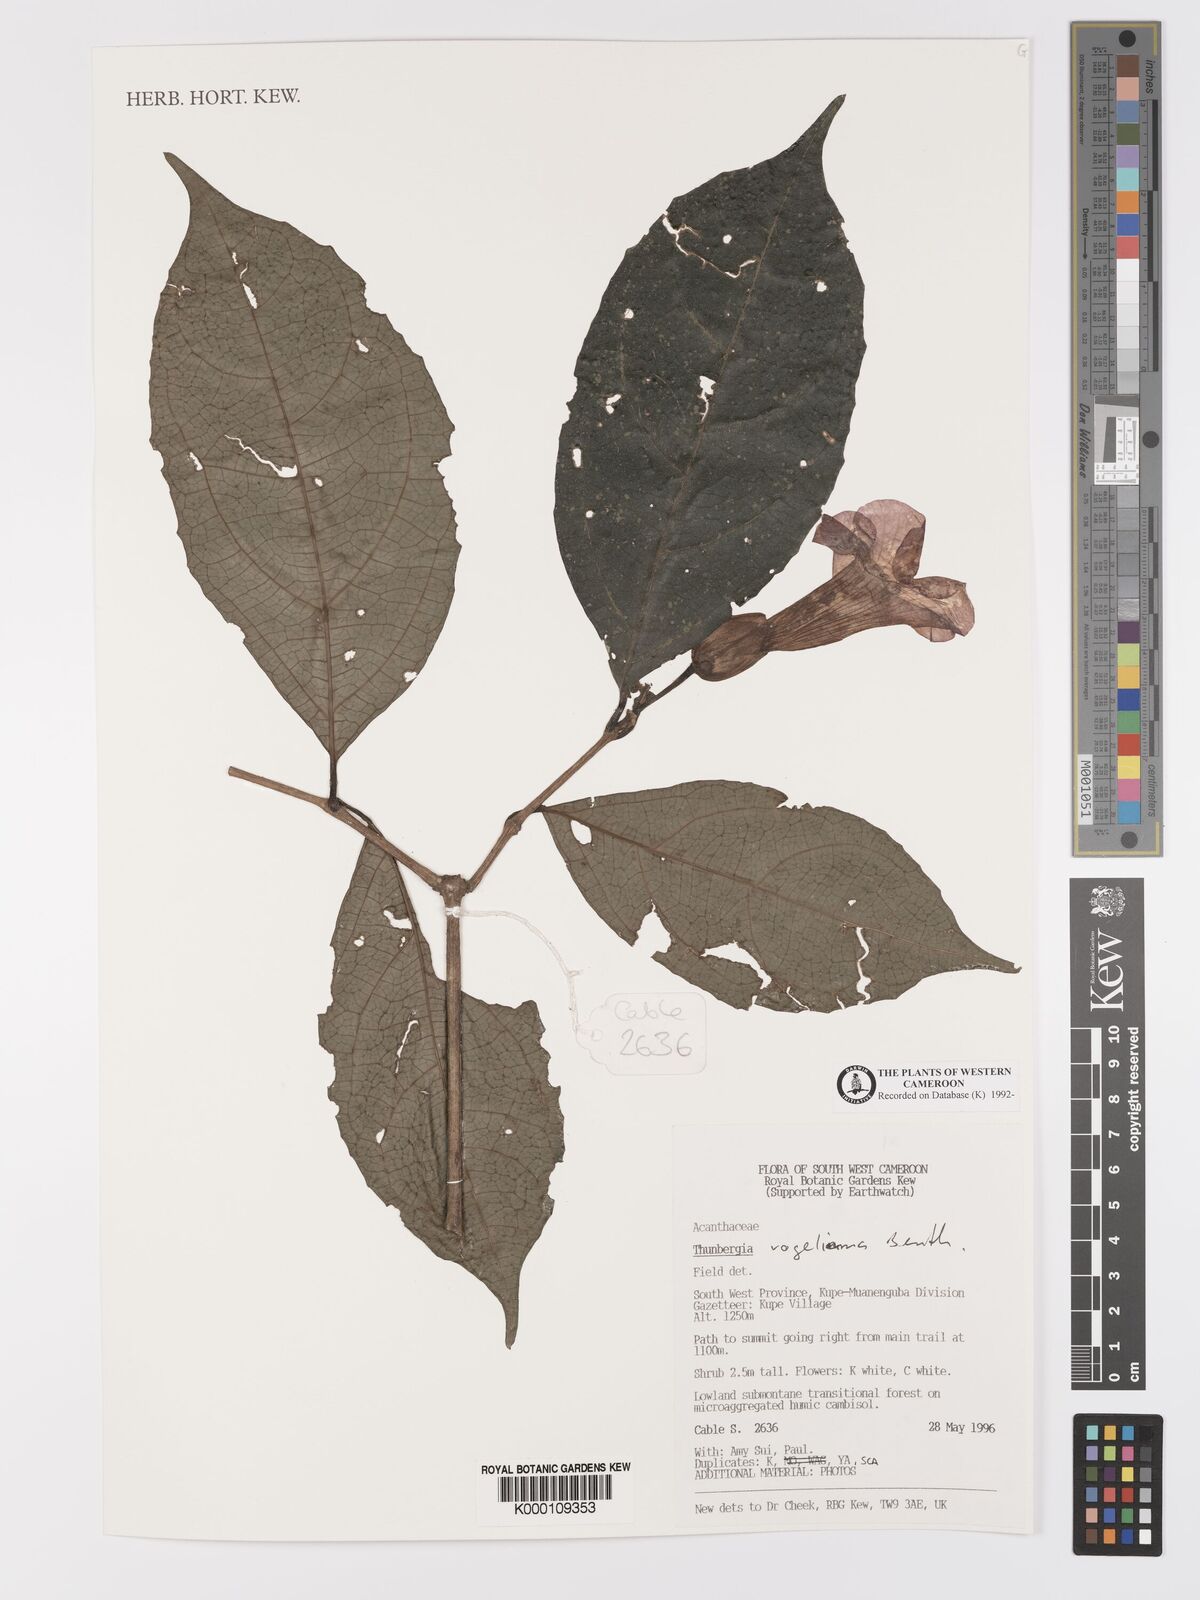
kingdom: Plantae
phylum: Tracheophyta
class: Magnoliopsida
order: Lamiales
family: Acanthaceae
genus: Thunbergia
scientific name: Thunbergia vogeliana
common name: Acanthaceae
